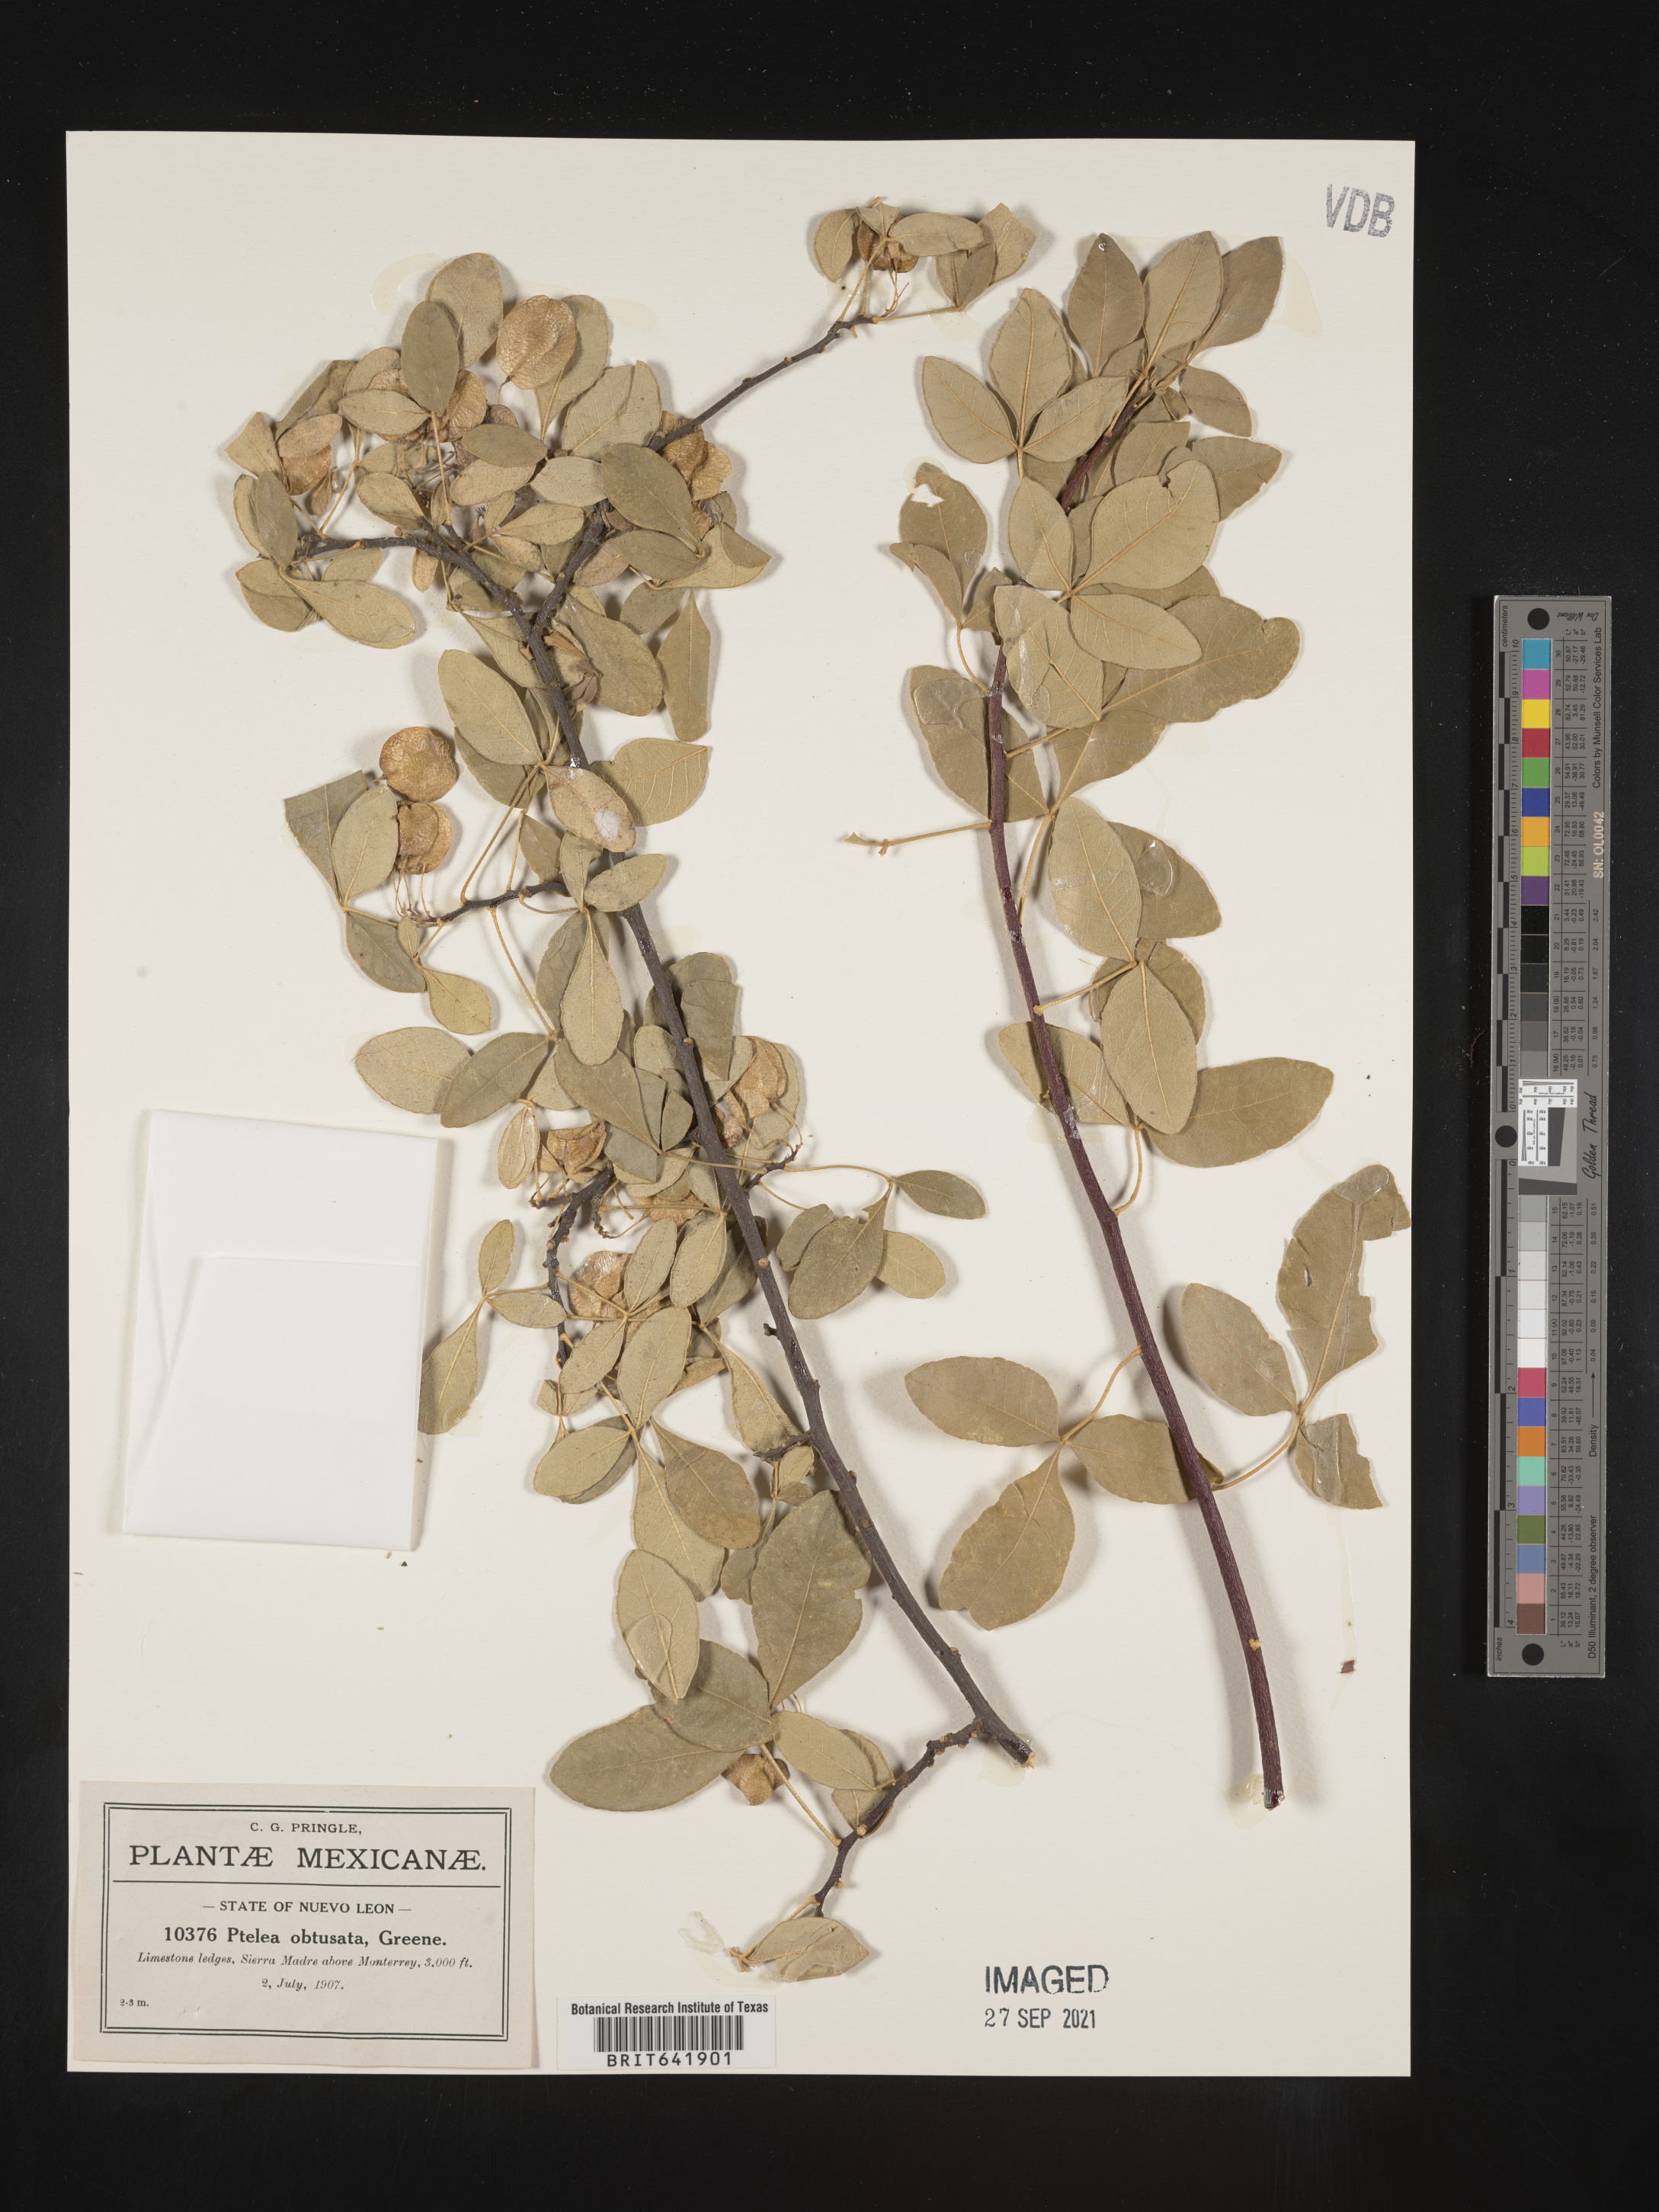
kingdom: Plantae
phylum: Tracheophyta
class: Magnoliopsida
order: Sapindales
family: Rutaceae
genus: Ptelea
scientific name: Ptelea
